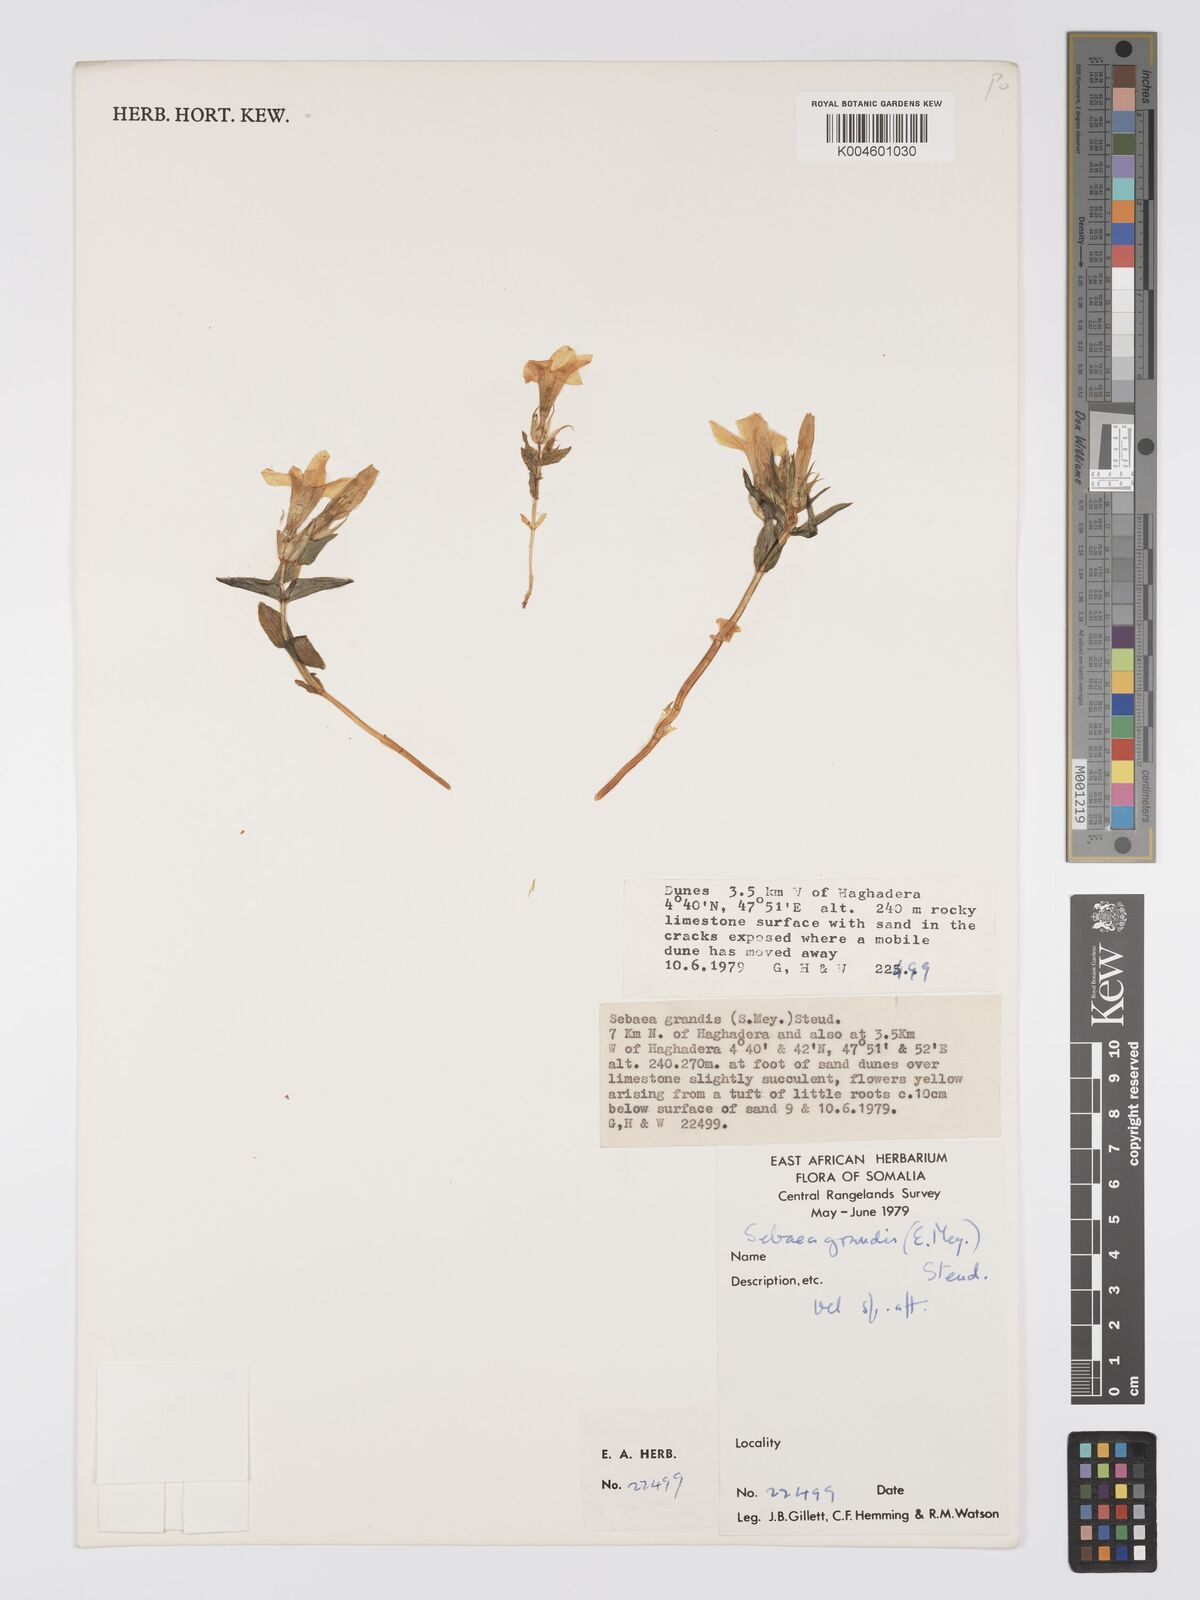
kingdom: Plantae
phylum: Tracheophyta
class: Magnoliopsida
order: Gentianales
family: Gentianaceae
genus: Exochaenium
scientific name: Exochaenium grande
